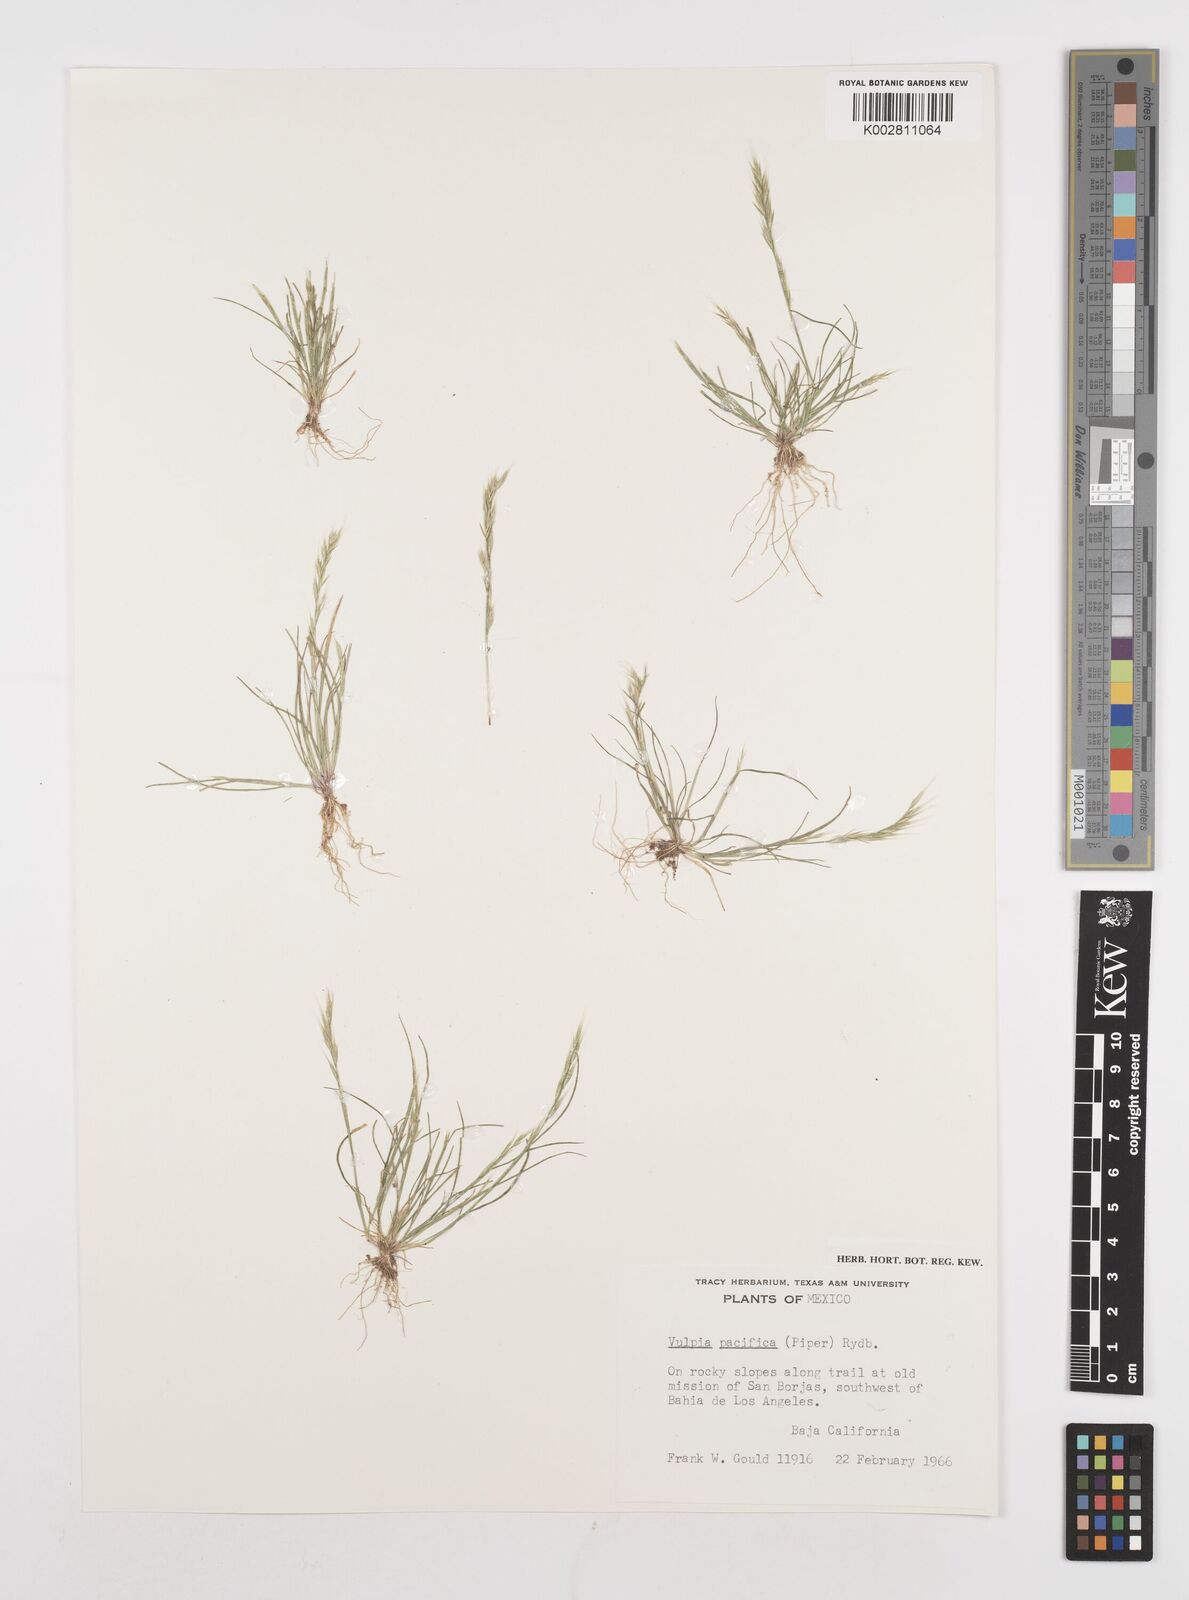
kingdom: Plantae
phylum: Tracheophyta
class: Liliopsida
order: Poales
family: Poaceae
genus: Festuca
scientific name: Festuca microstachys
